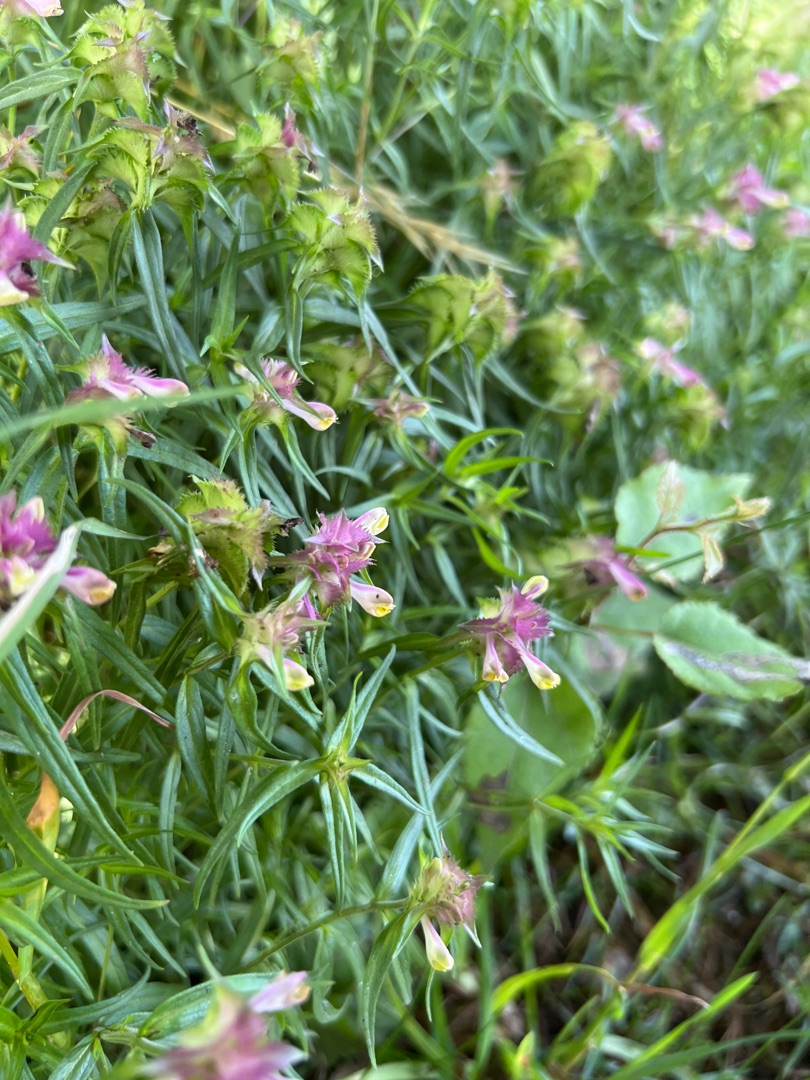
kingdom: Plantae
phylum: Tracheophyta
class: Magnoliopsida
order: Lamiales
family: Orobanchaceae
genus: Melampyrum
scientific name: Melampyrum cristatum
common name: Kantet kohvede
